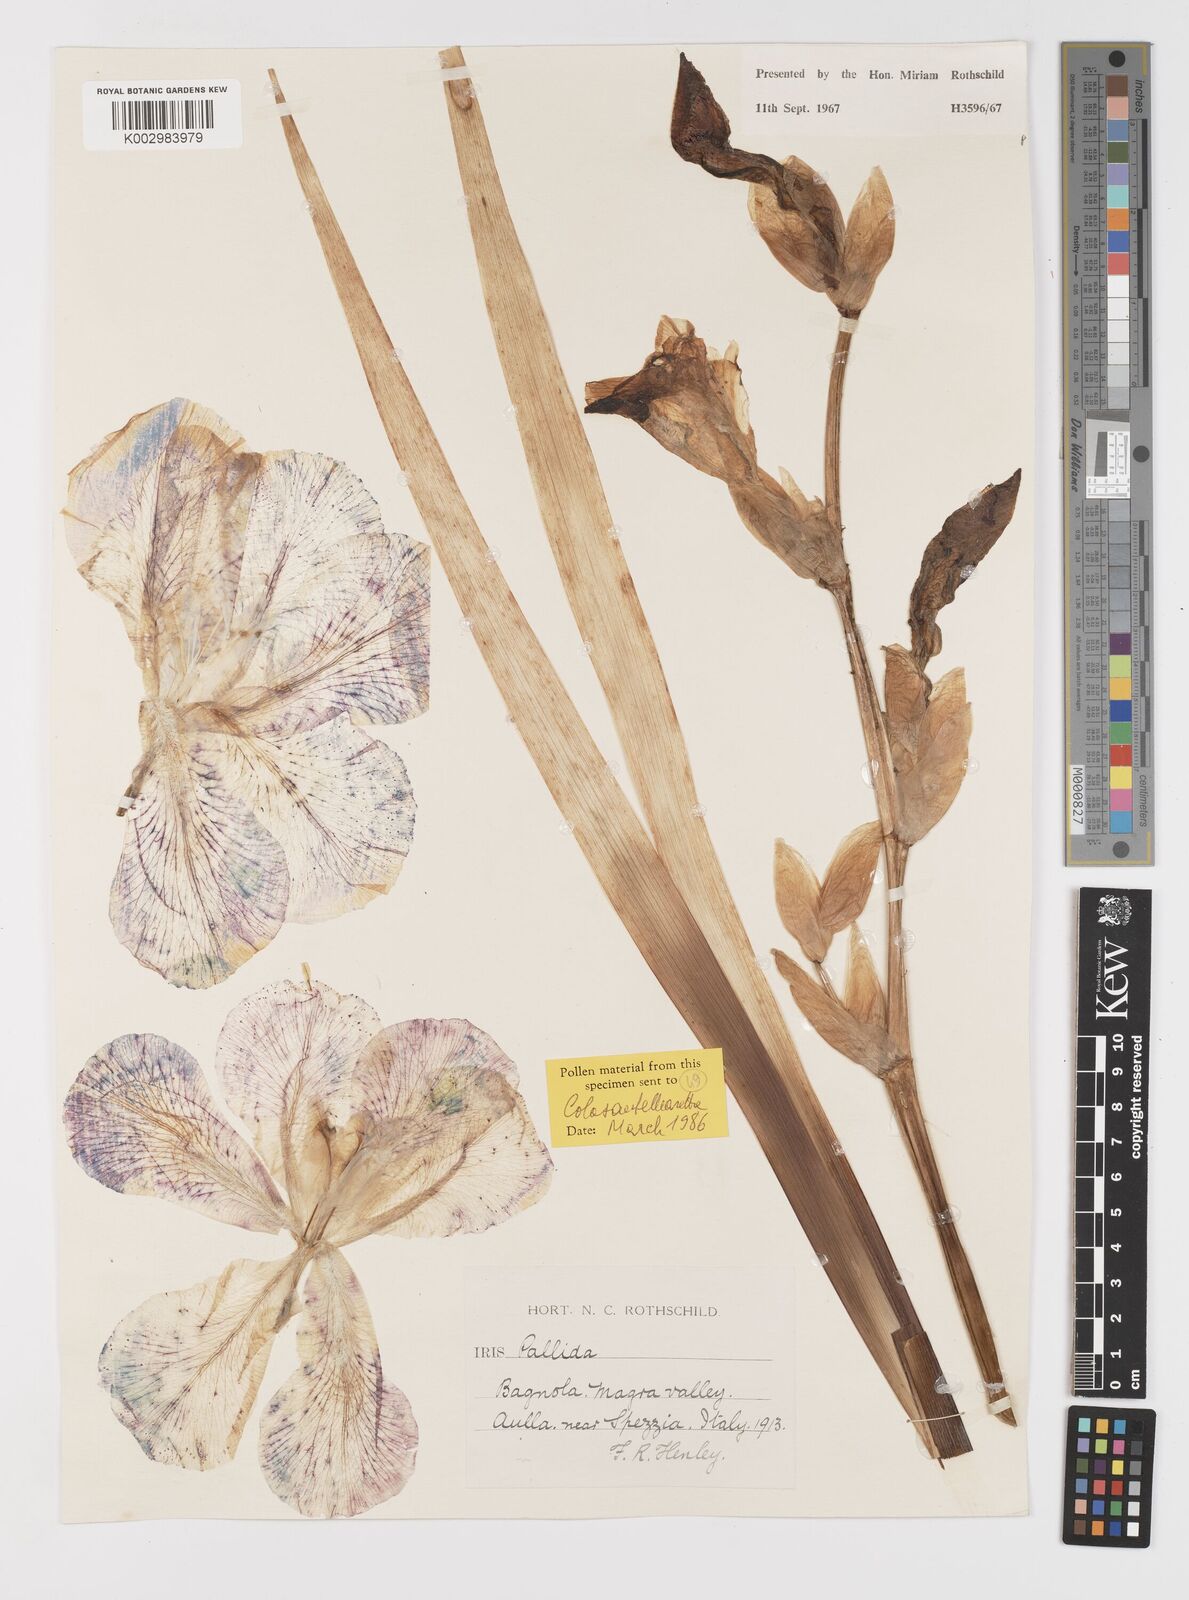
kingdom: Plantae
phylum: Tracheophyta
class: Liliopsida
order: Asparagales
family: Iridaceae
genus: Iris
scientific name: Iris halophila
